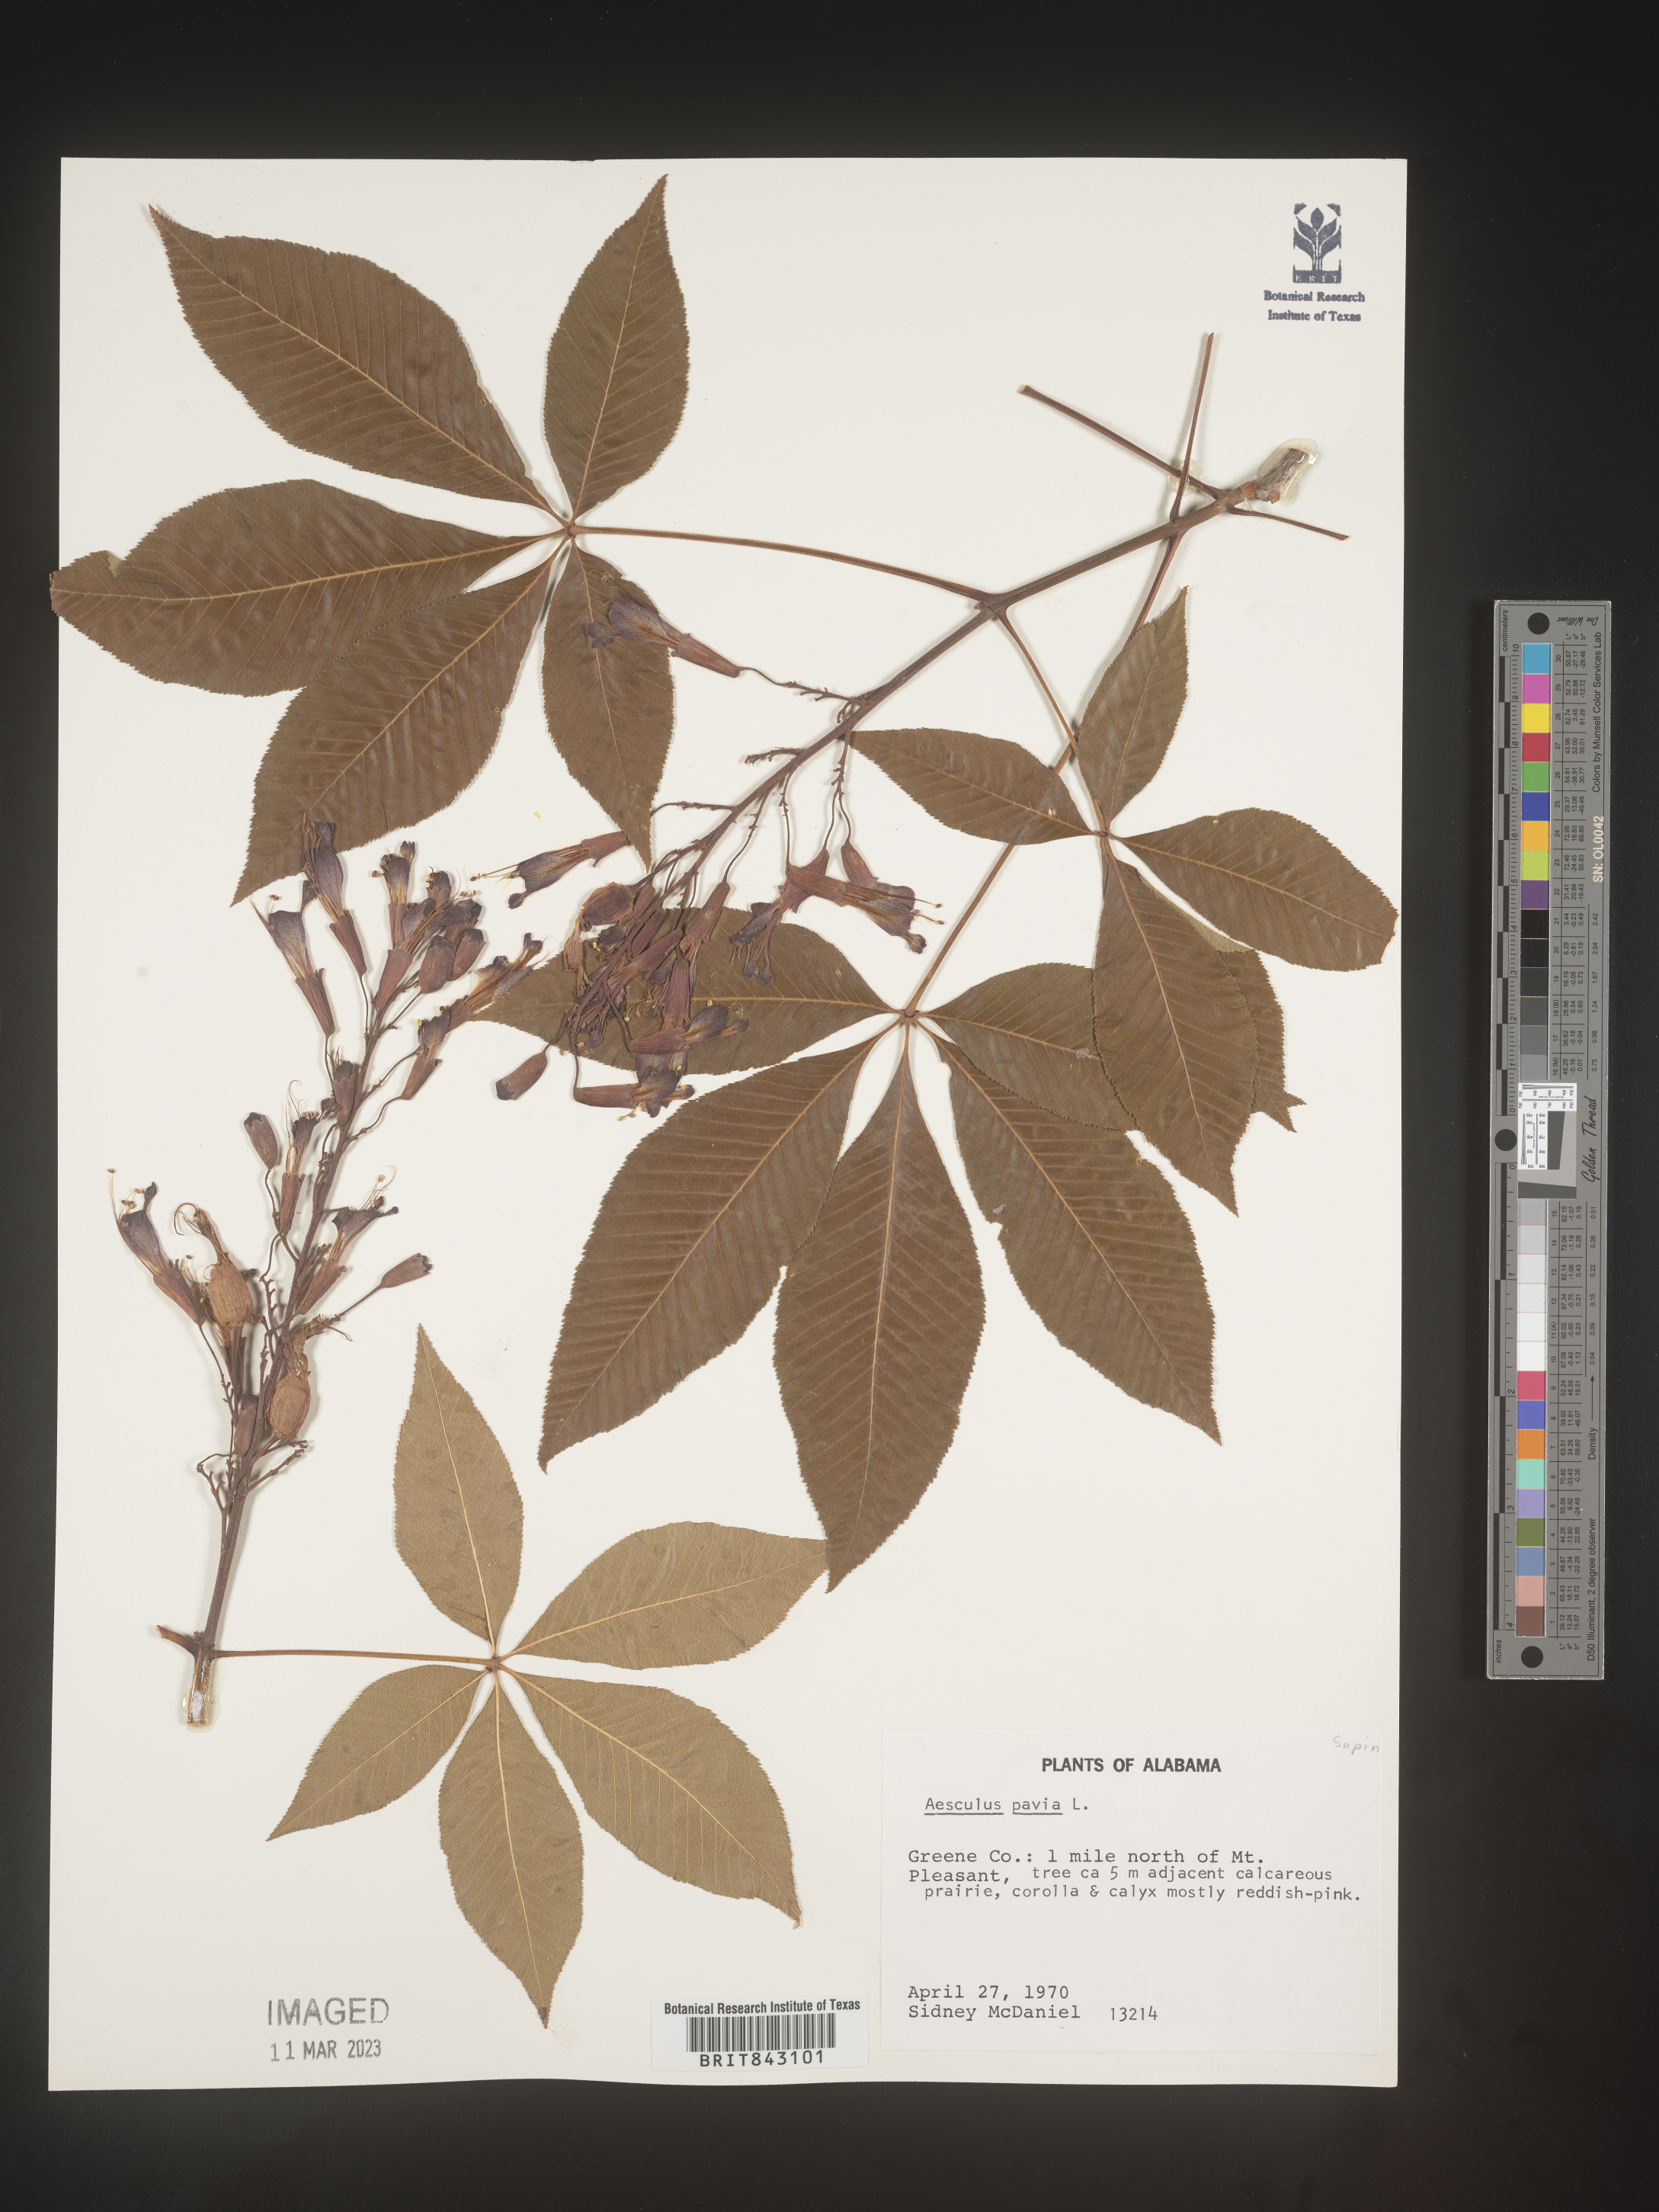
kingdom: Plantae
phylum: Tracheophyta
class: Magnoliopsida
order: Sapindales
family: Sapindaceae
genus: Aesculus
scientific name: Aesculus pavia
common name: Red buckeye
